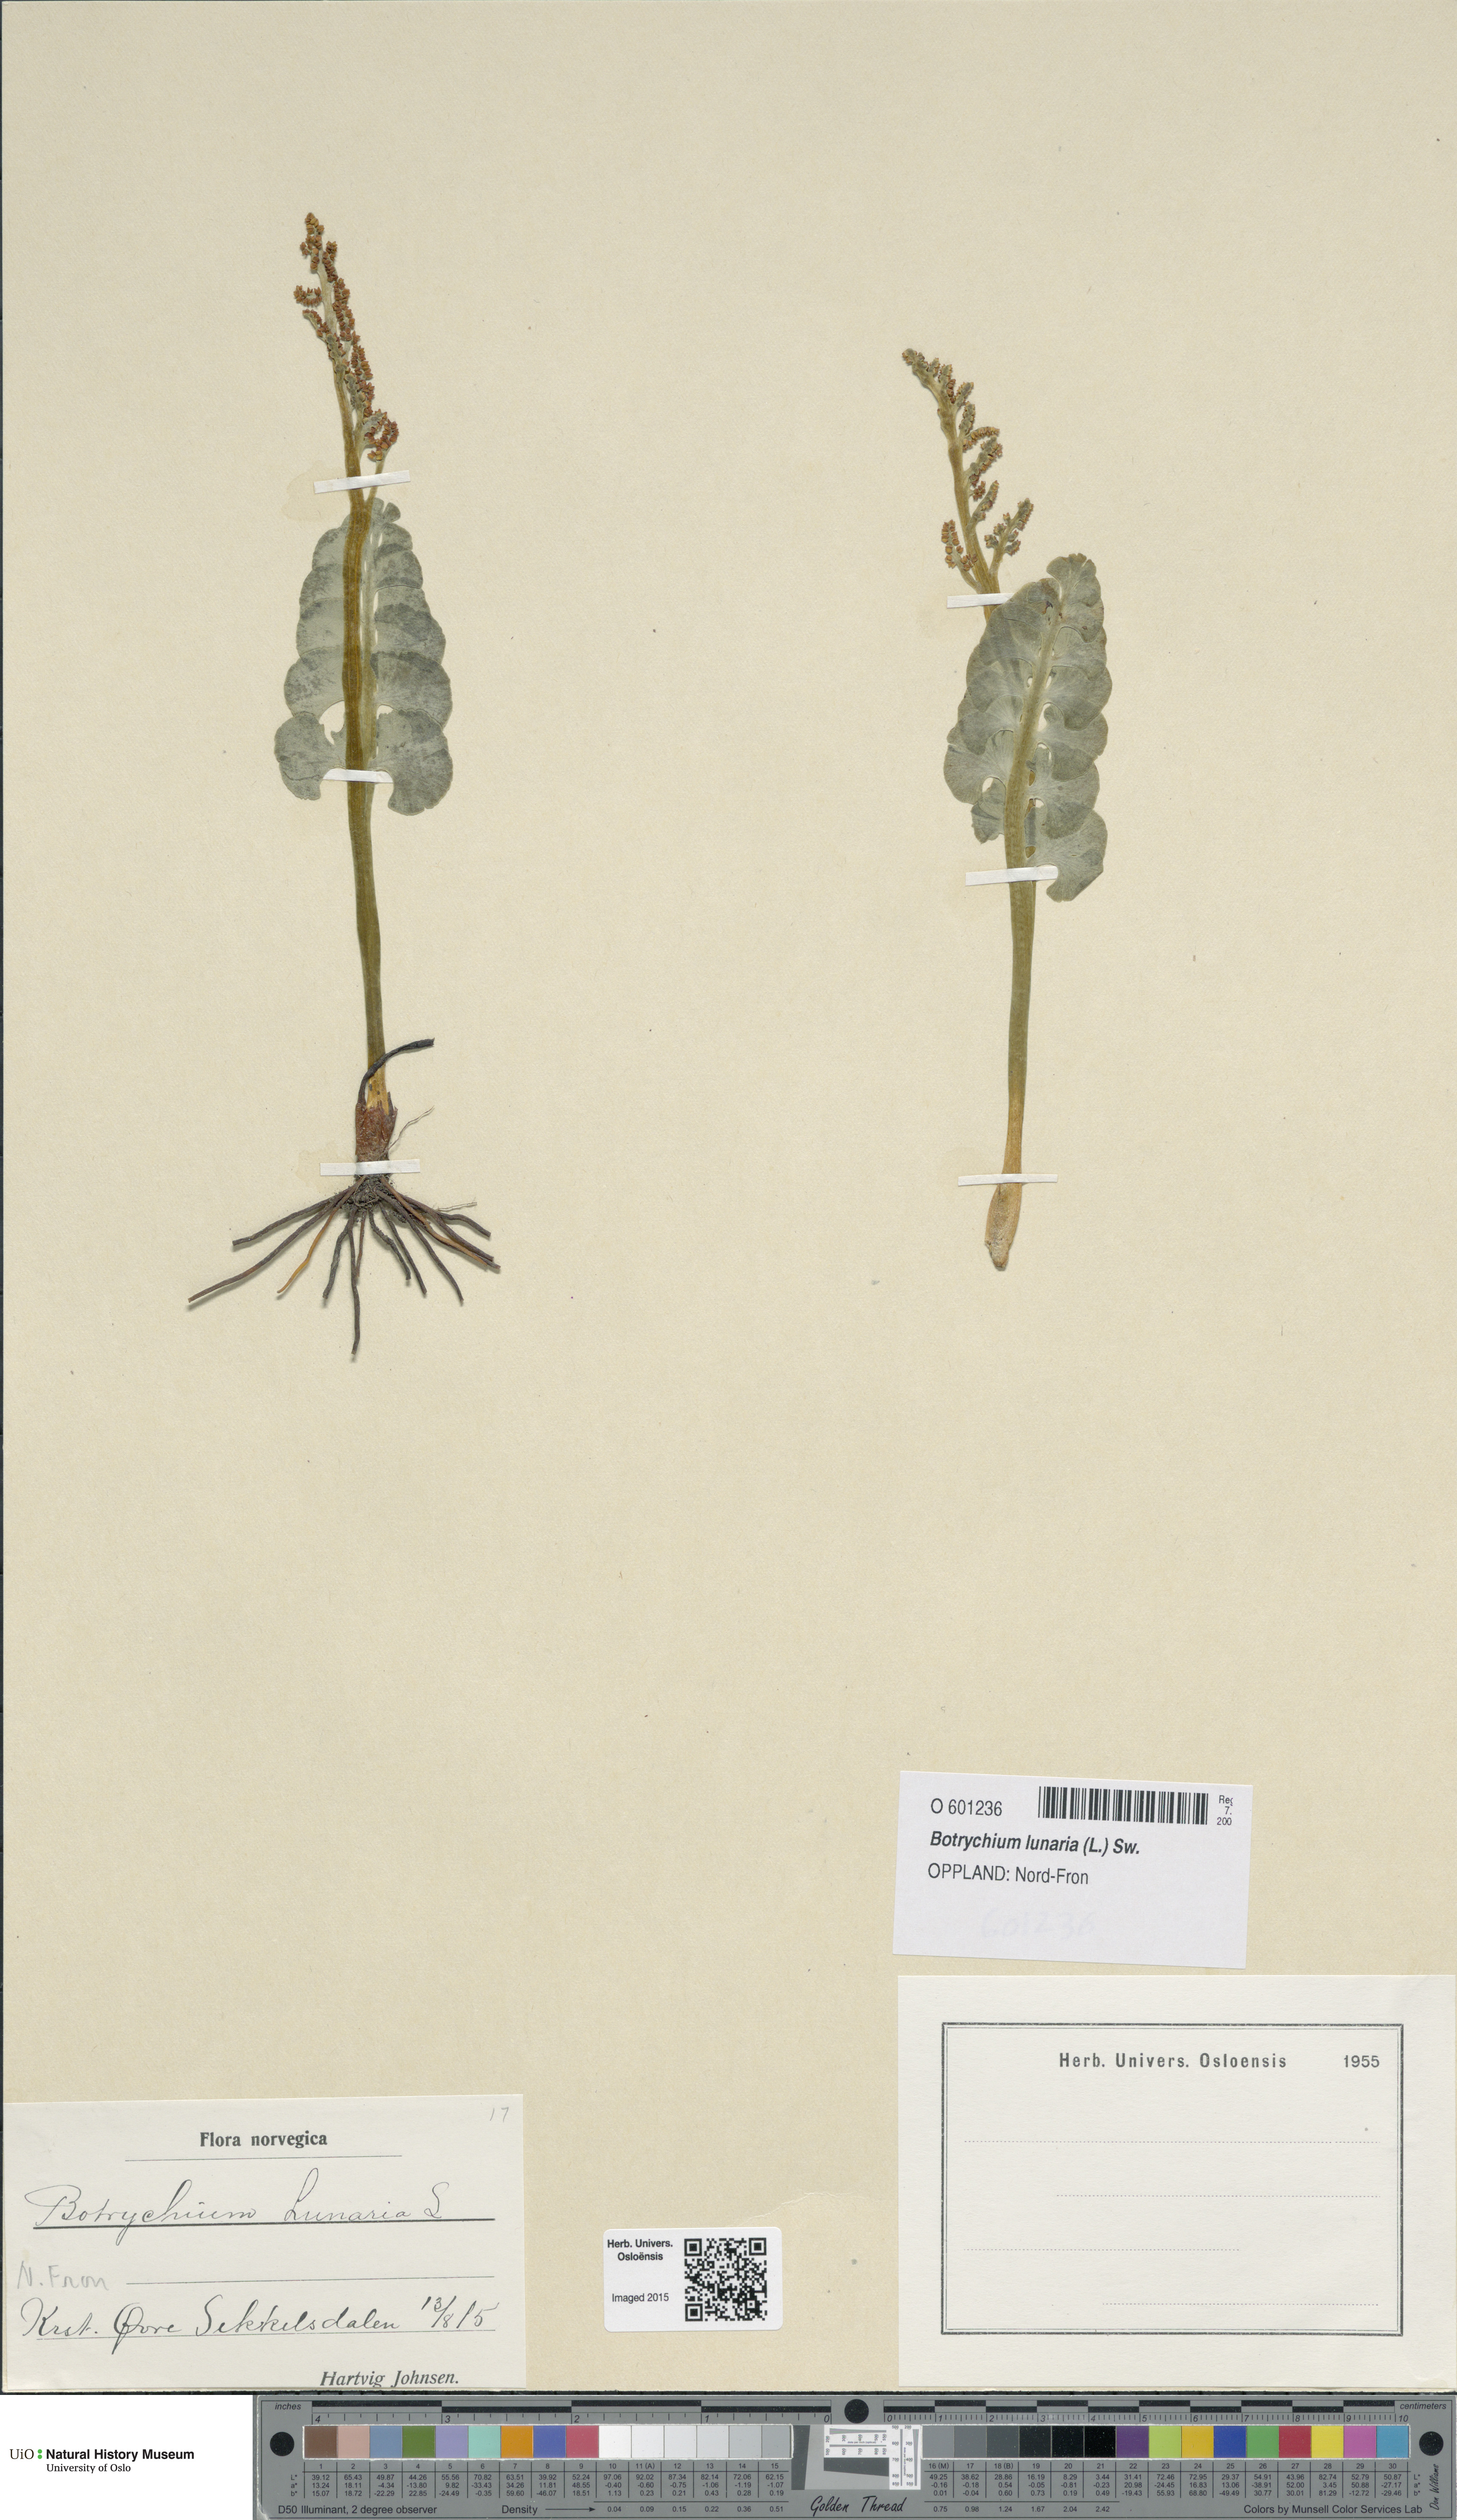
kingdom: Plantae
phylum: Tracheophyta
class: Polypodiopsida
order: Ophioglossales
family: Ophioglossaceae
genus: Botrychium
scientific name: Botrychium lunaria
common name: Moonwort
